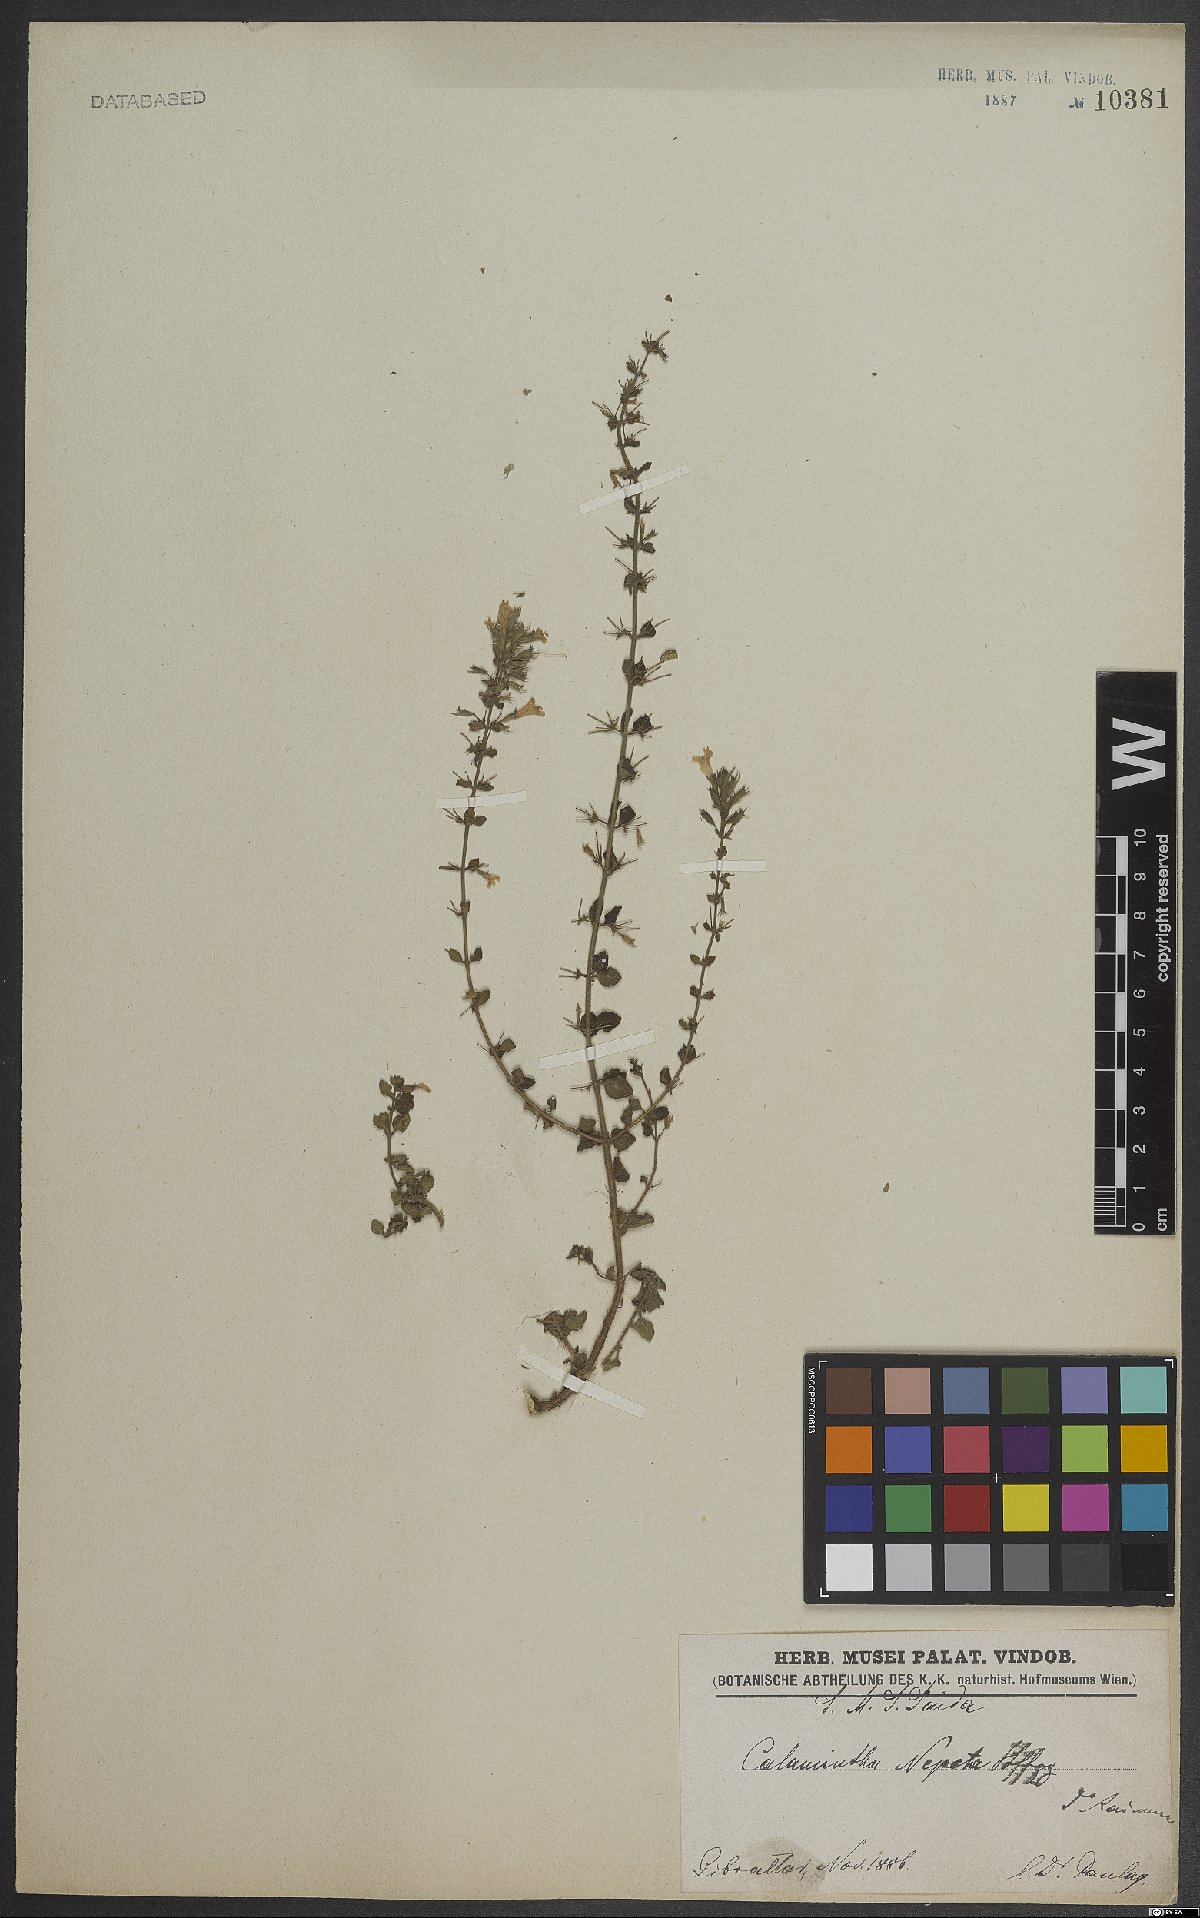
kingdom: Plantae
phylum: Tracheophyta
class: Magnoliopsida
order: Lamiales
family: Lamiaceae
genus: Clinopodium
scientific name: Clinopodium heterotrichum
